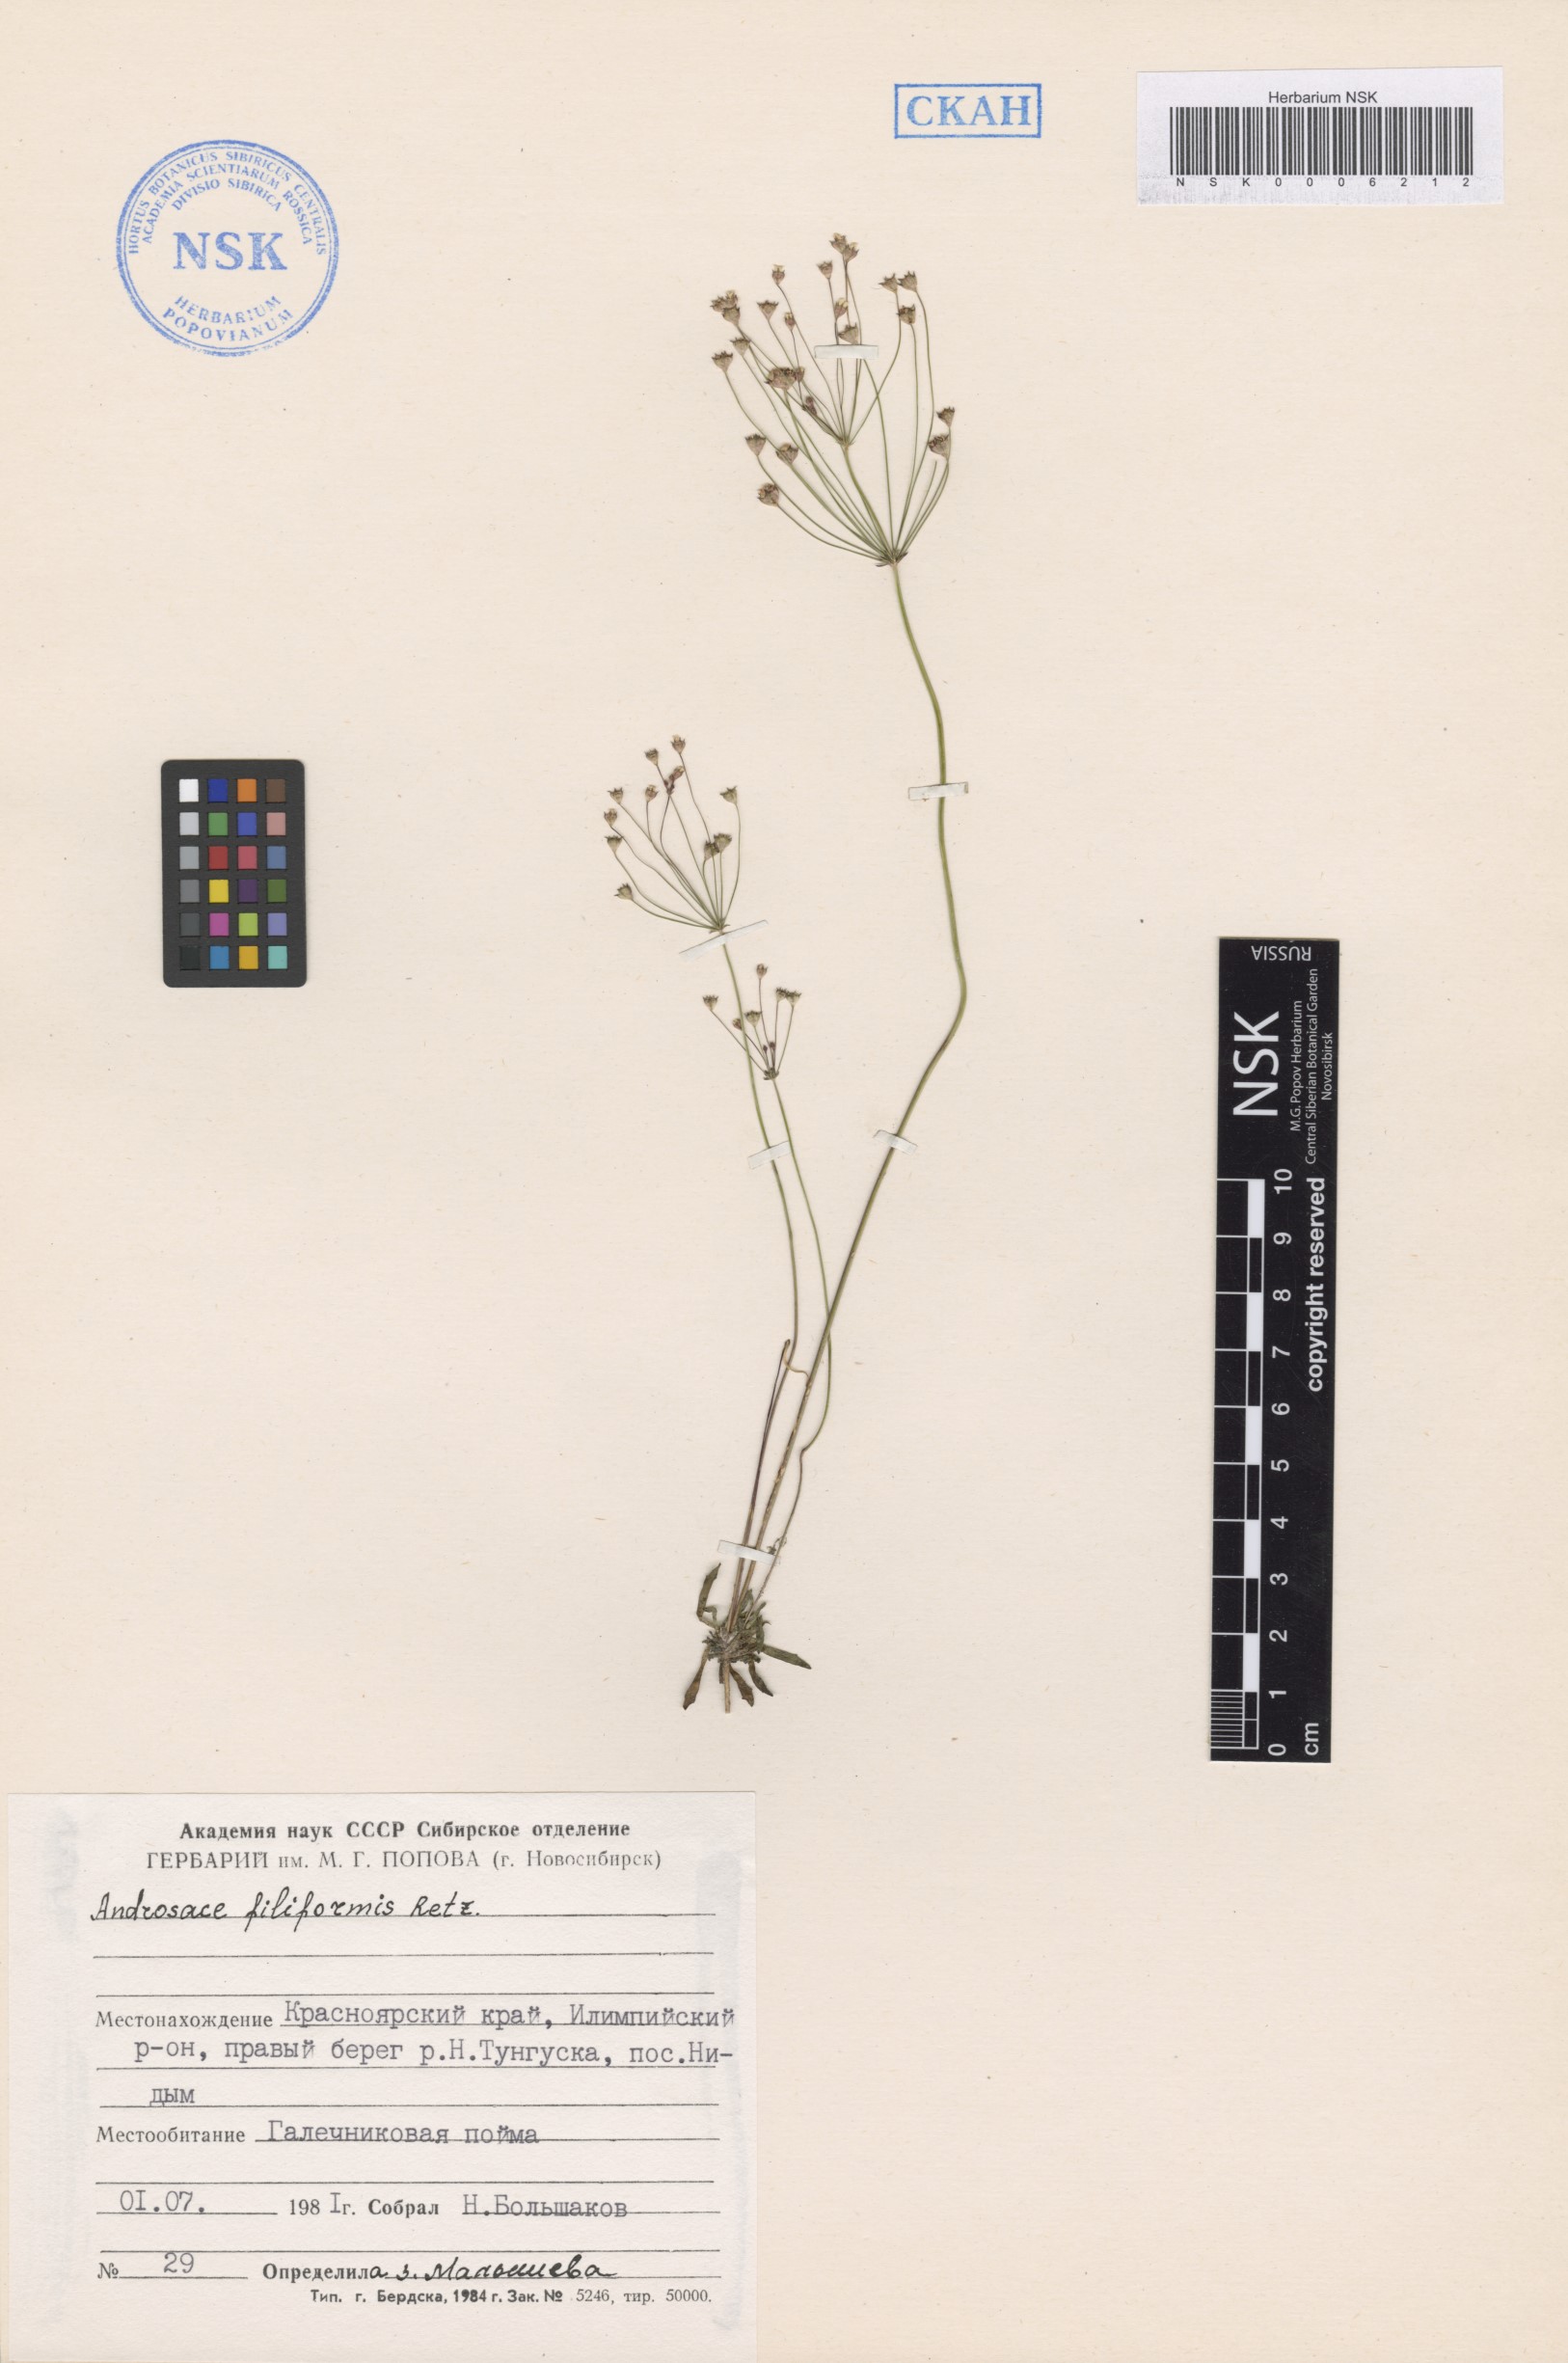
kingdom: Plantae
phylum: Tracheophyta
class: Magnoliopsida
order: Ericales
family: Primulaceae
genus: Androsace
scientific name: Androsace filiformis
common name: Filiform rock jasmine
